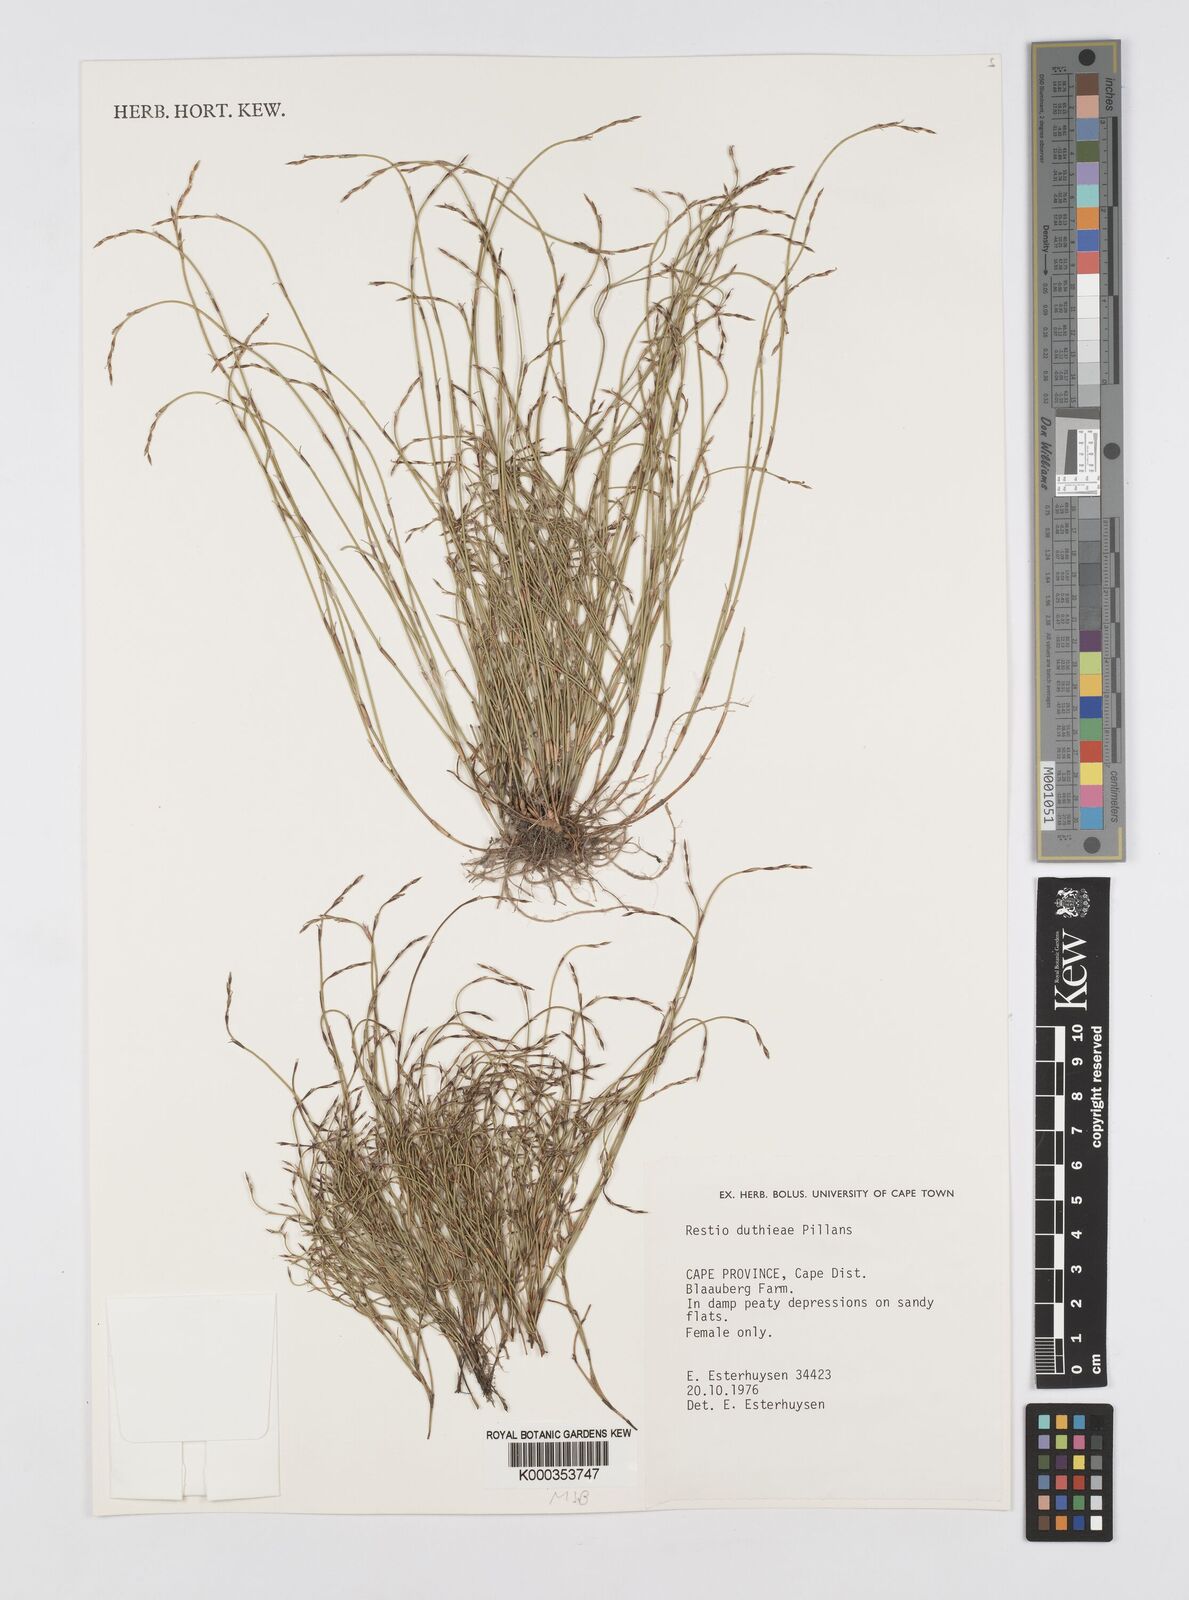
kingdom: Plantae
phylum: Tracheophyta
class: Liliopsida
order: Poales
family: Restionaceae
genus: Restio
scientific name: Restio duthieae
